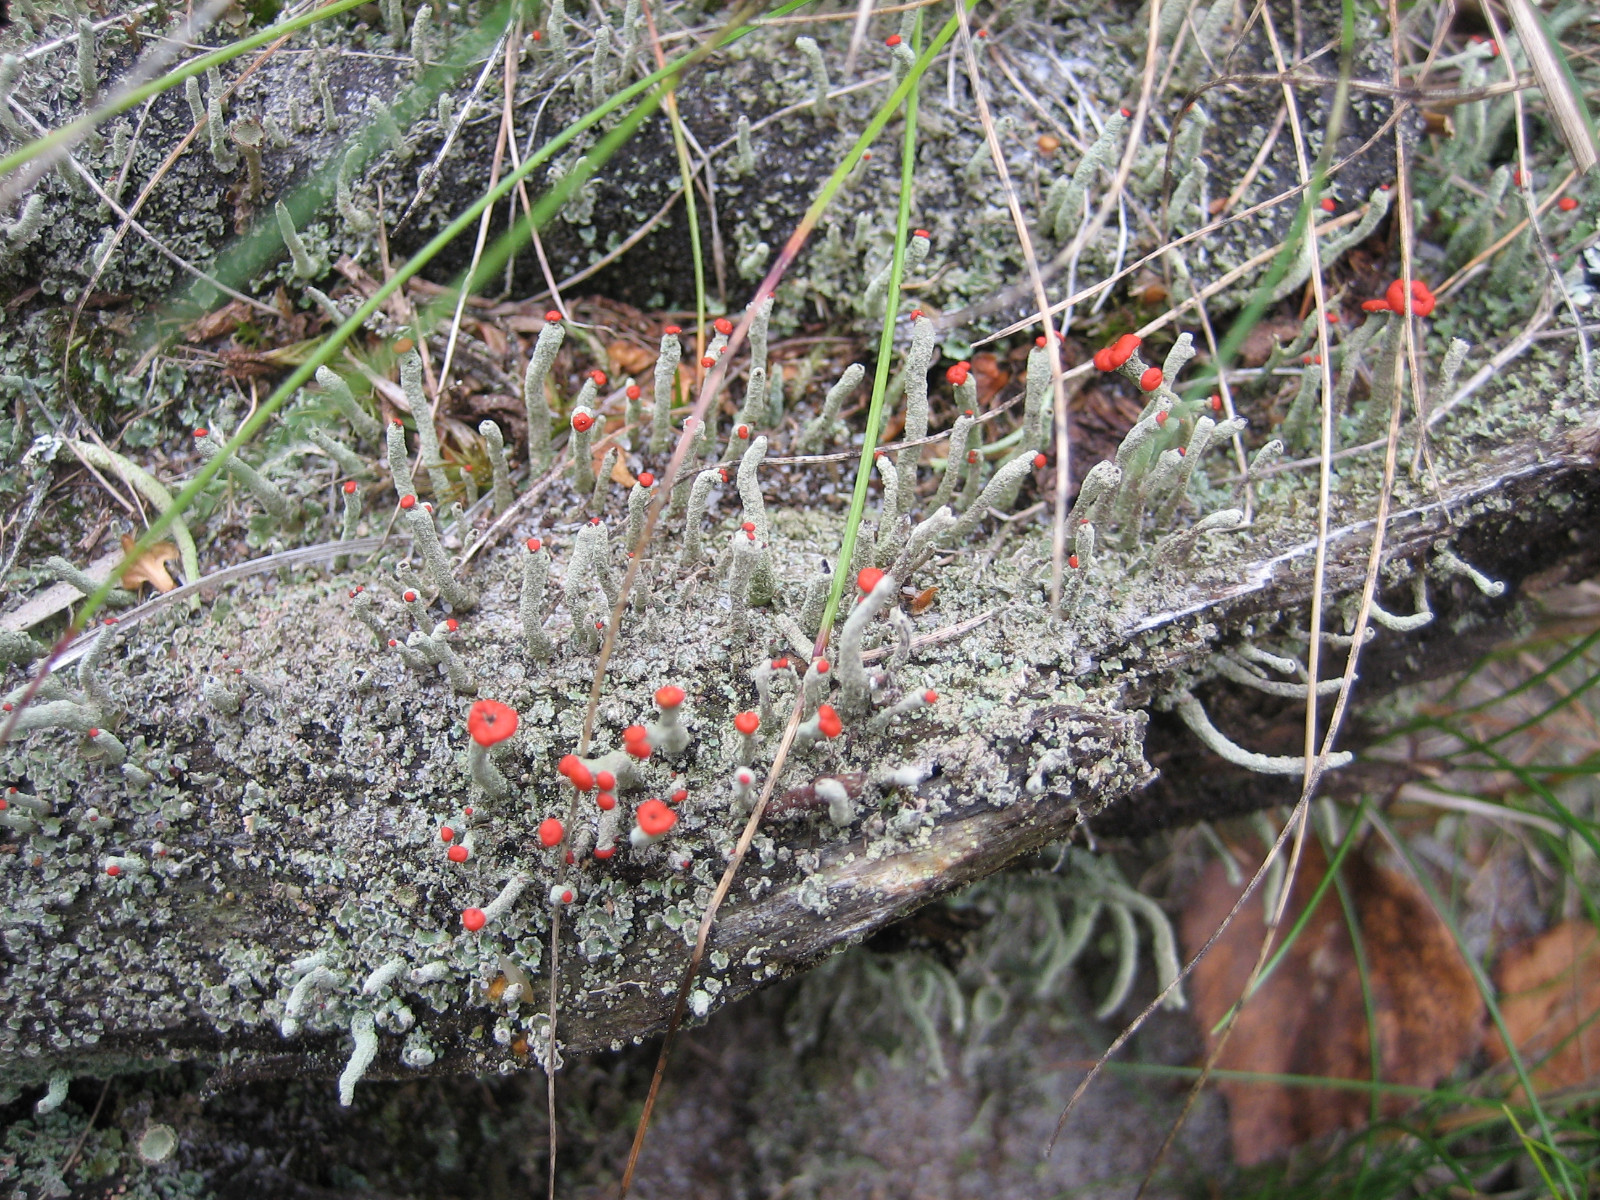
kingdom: Fungi
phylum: Ascomycota
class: Lecanoromycetes
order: Lecanorales
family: Cladoniaceae
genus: Cladonia
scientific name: Cladonia macilenta
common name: indsvunden bægerlav
